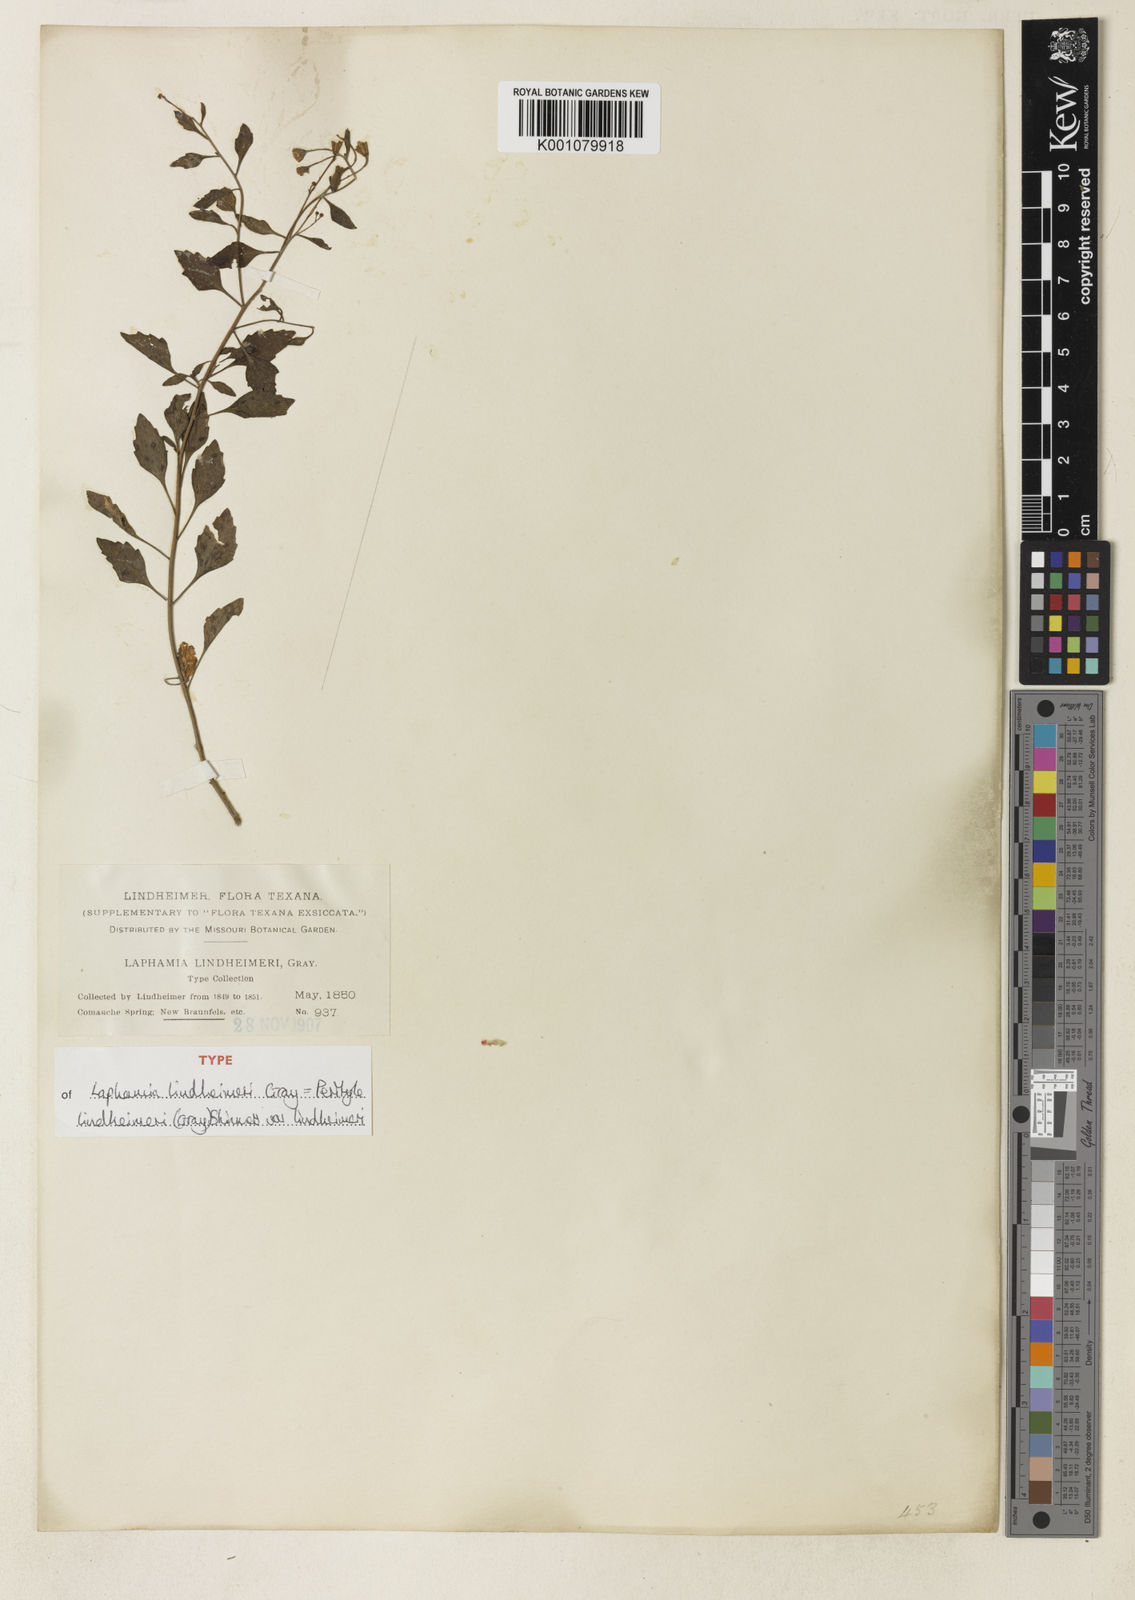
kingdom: Plantae
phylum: Tracheophyta
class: Magnoliopsida
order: Asterales
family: Asteraceae
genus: Laphamia
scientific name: Laphamia lindheimeri
